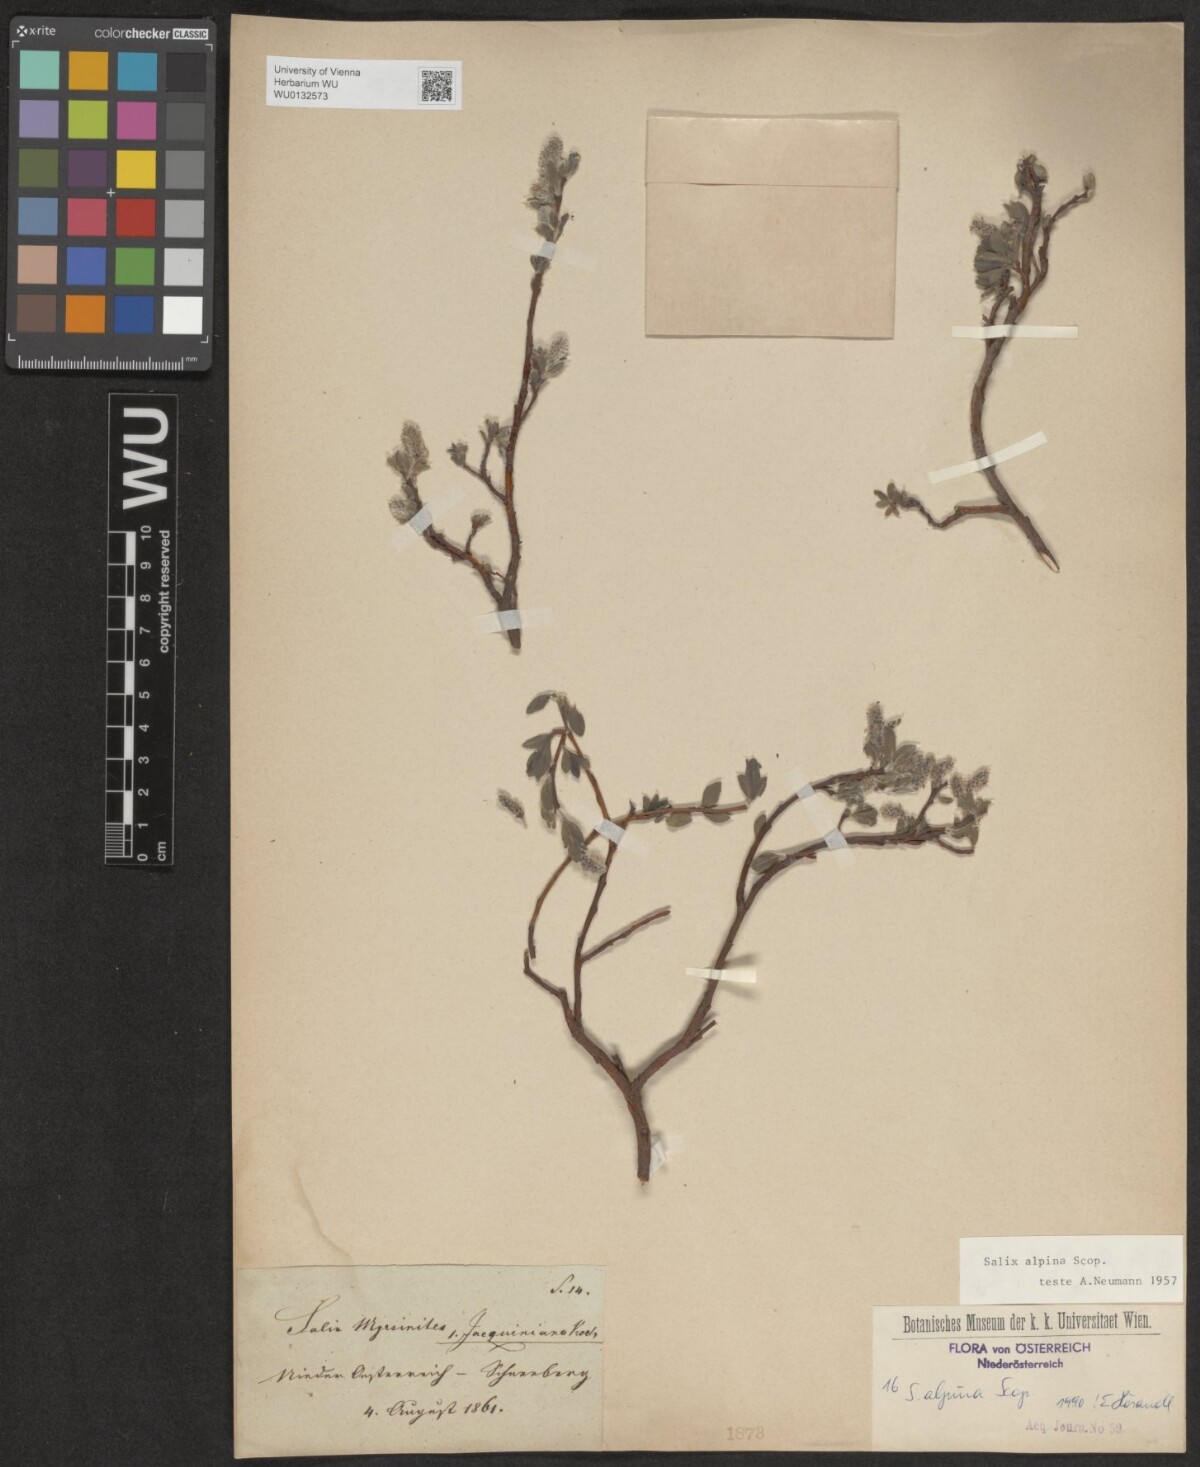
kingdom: Plantae
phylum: Tracheophyta
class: Magnoliopsida
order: Malpighiales
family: Salicaceae
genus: Salix
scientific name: Salix alpina
